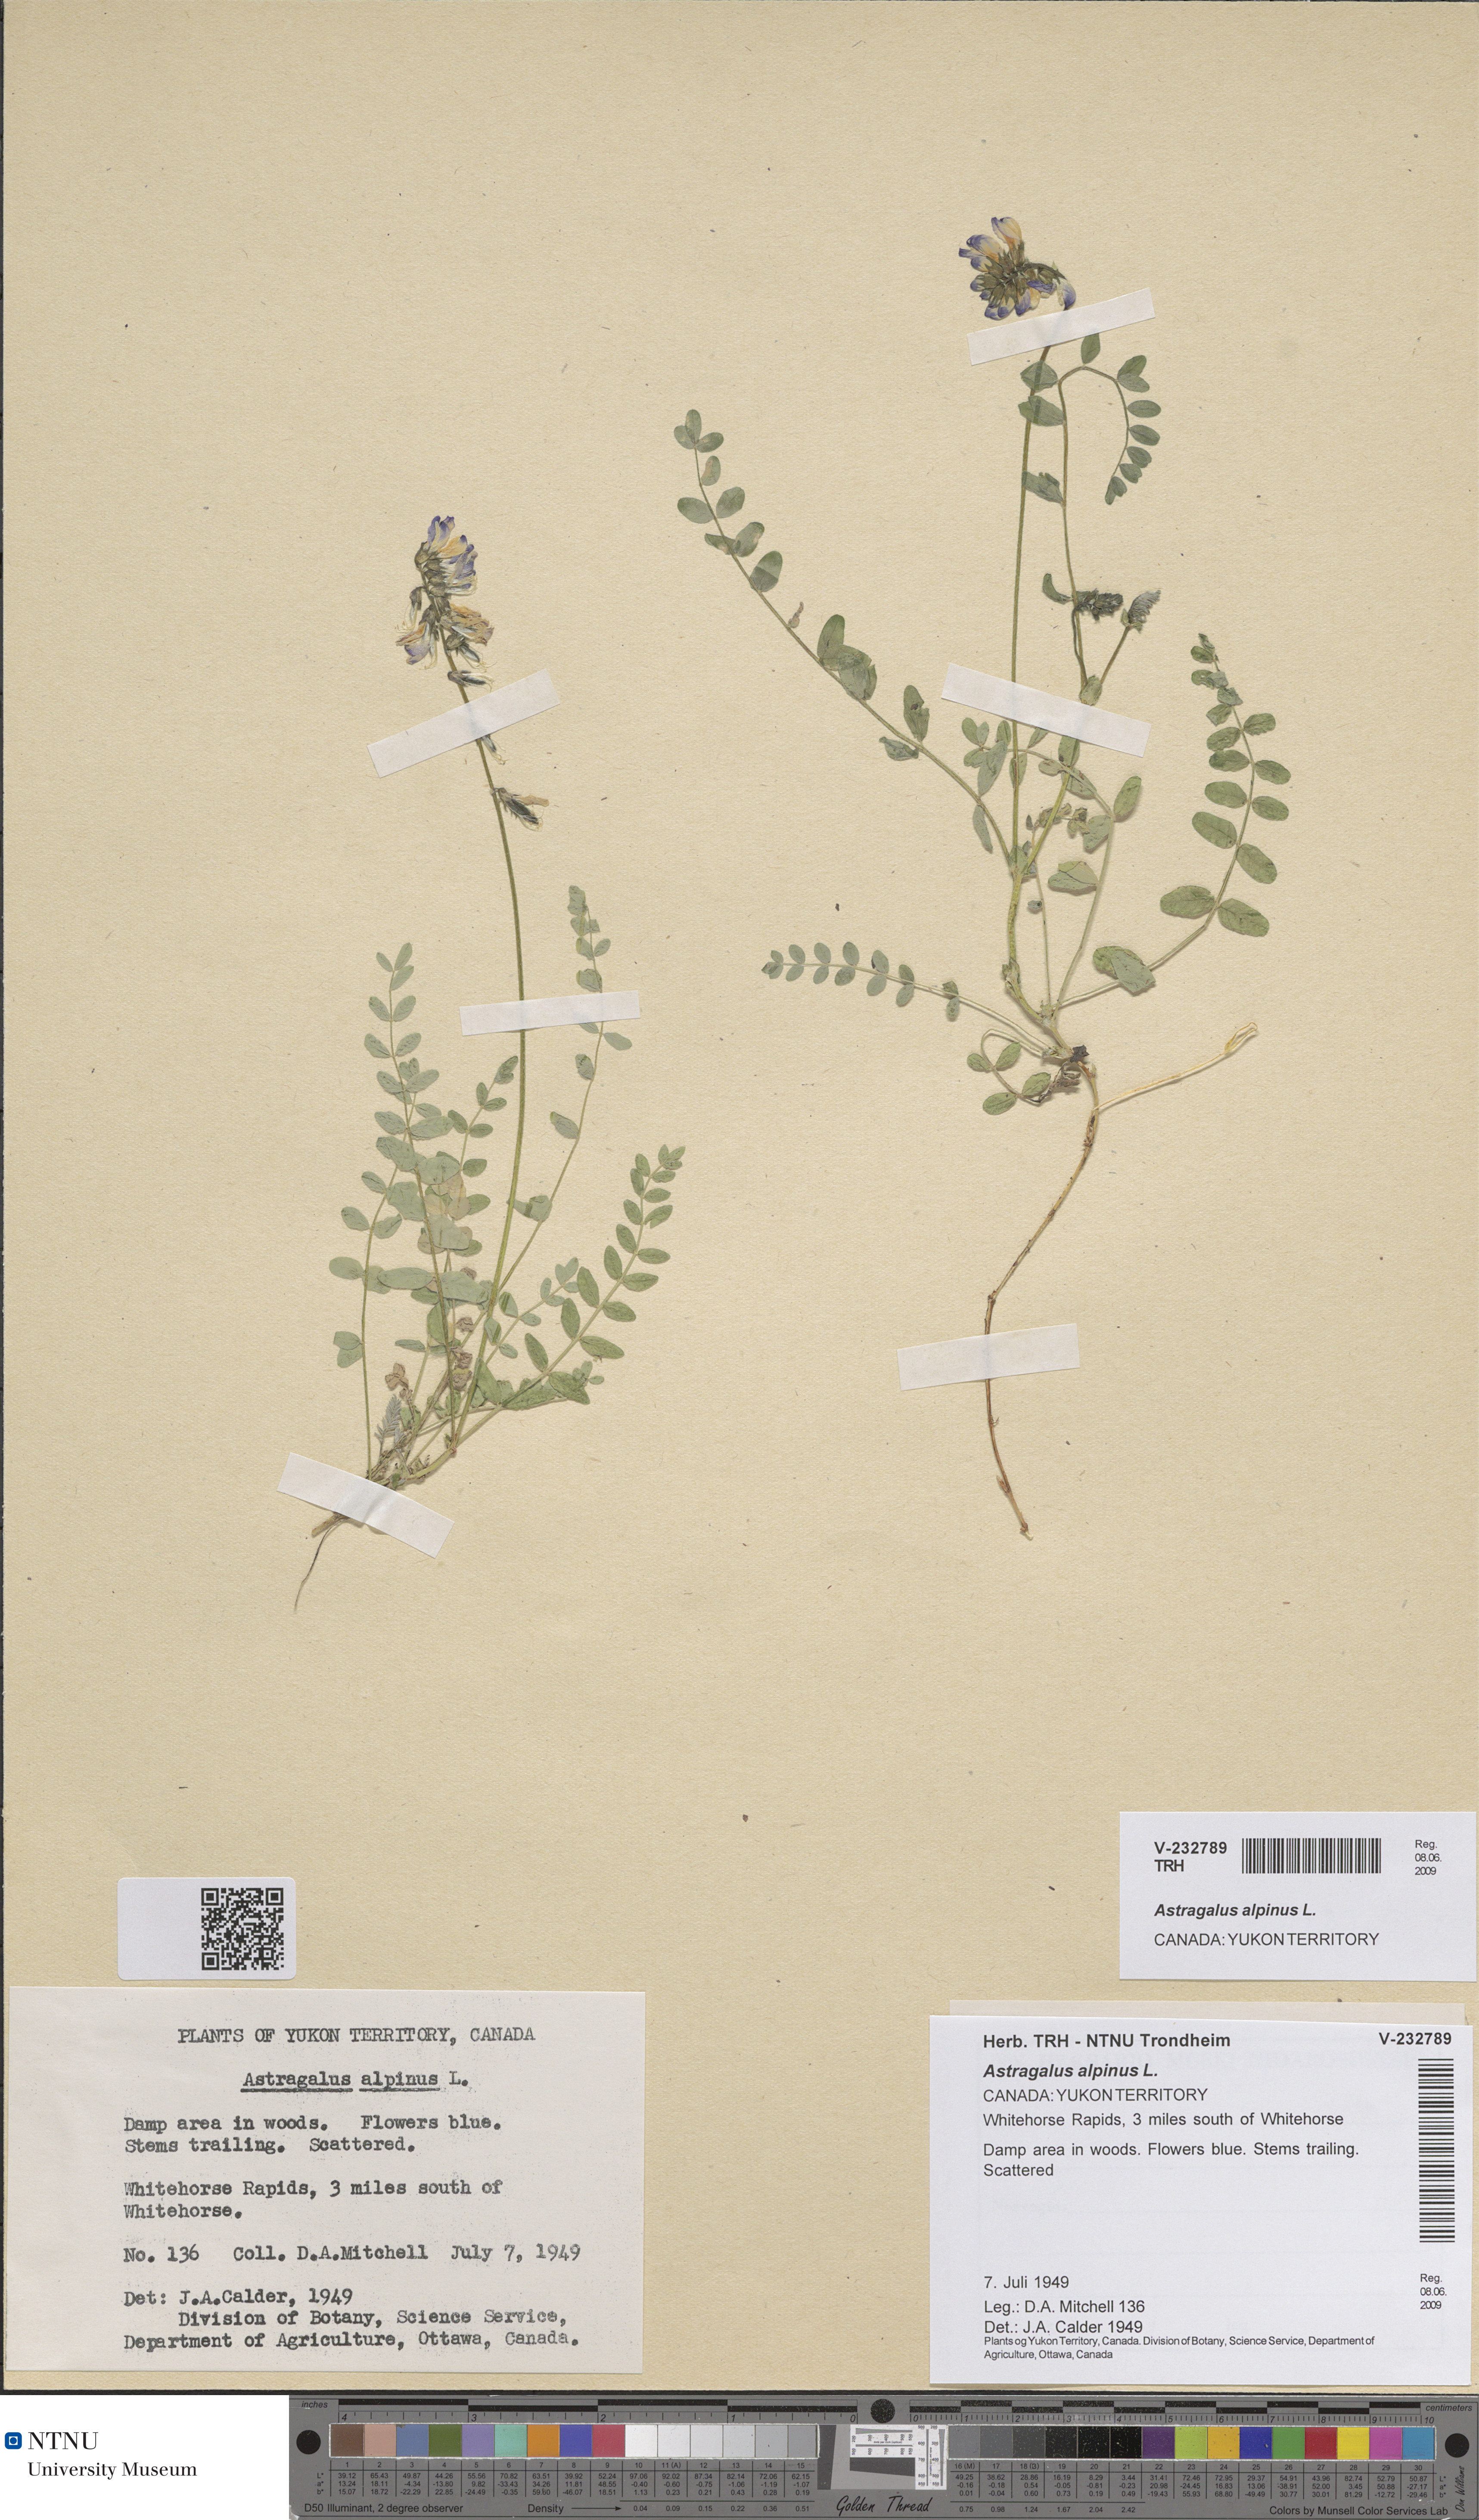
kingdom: Plantae
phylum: Tracheophyta
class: Magnoliopsida
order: Fabales
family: Fabaceae
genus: Astragalus
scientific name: Astragalus alpinus
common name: Alpine milk-vetch
